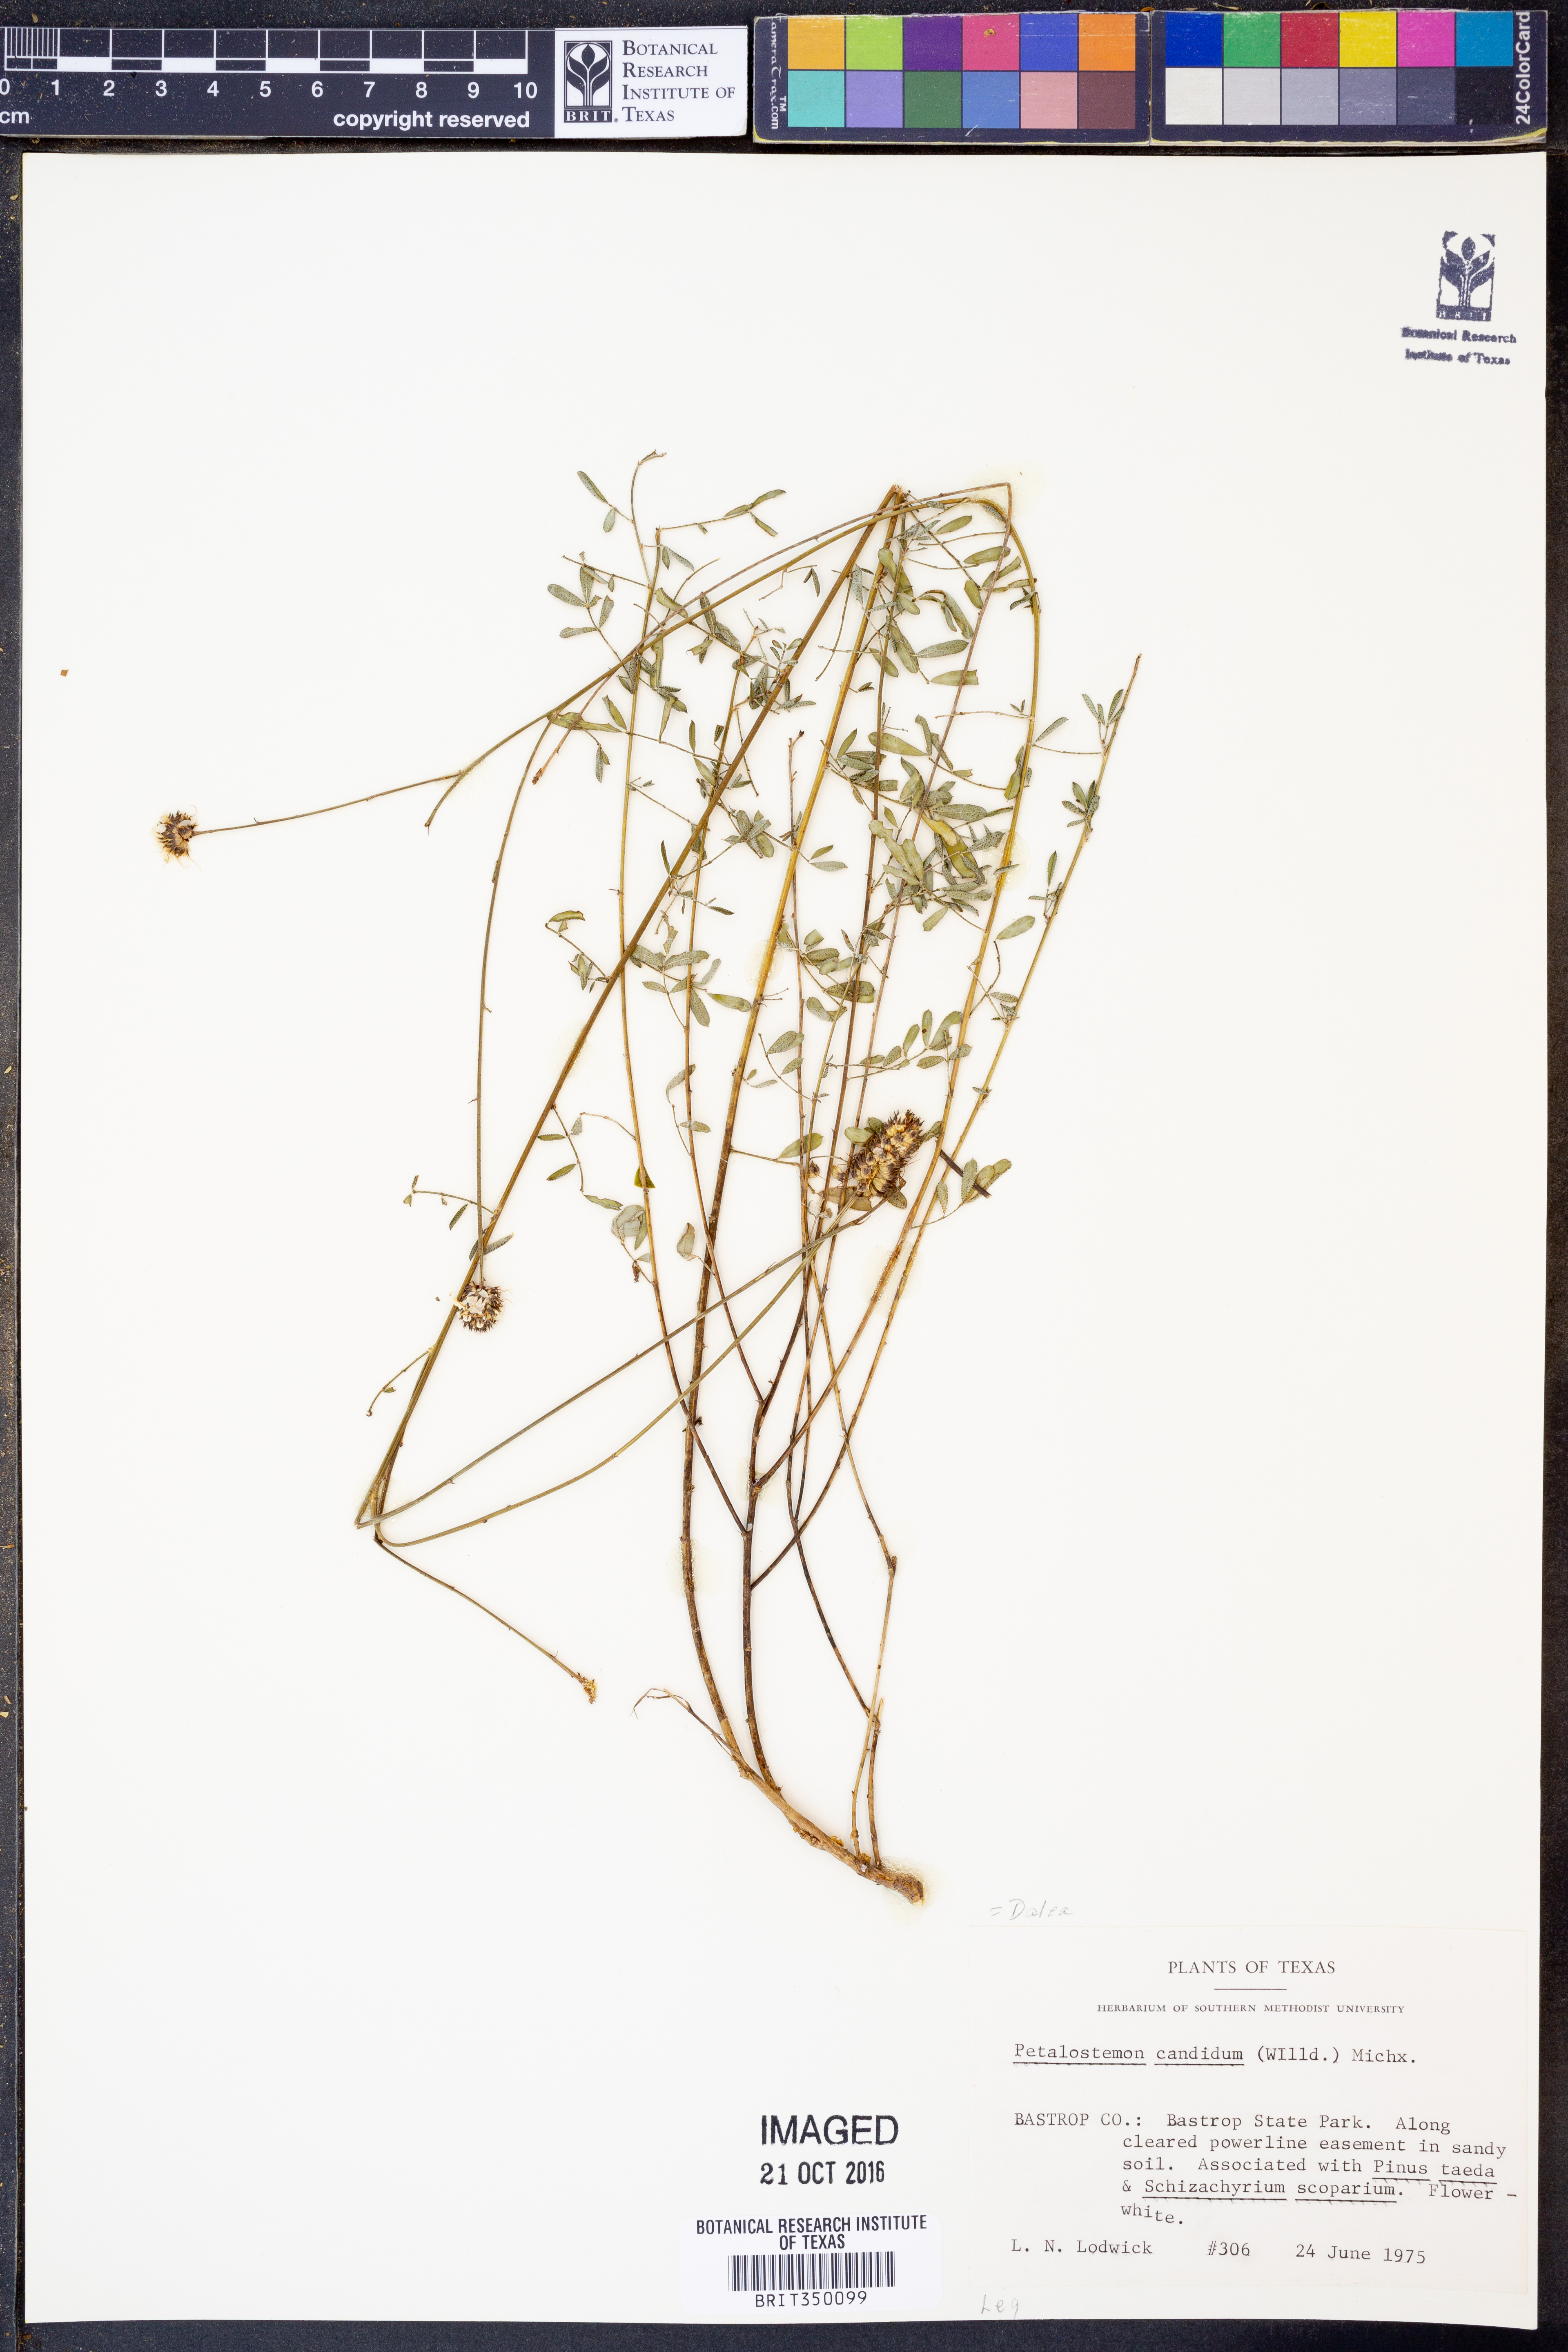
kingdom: Plantae
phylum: Tracheophyta
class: Magnoliopsida
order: Fabales
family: Fabaceae
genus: Dalea
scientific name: Dalea candida
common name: White prairie-clover
